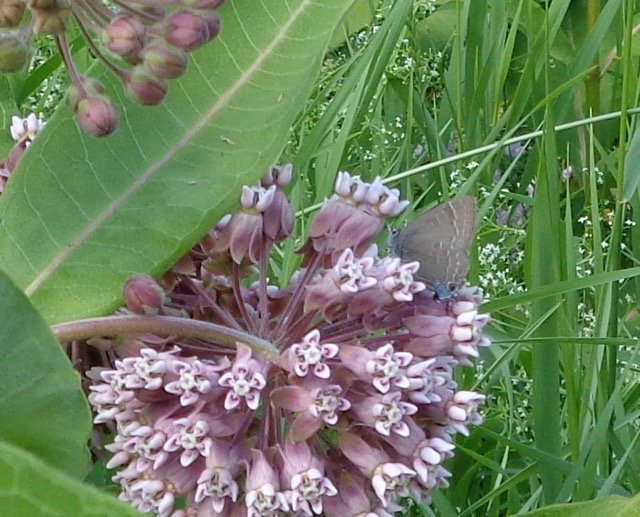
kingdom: Animalia
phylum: Arthropoda
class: Insecta
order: Lepidoptera
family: Lycaenidae
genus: Strymon
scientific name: Strymon caryaevorus
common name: Hickory Hairstreak
